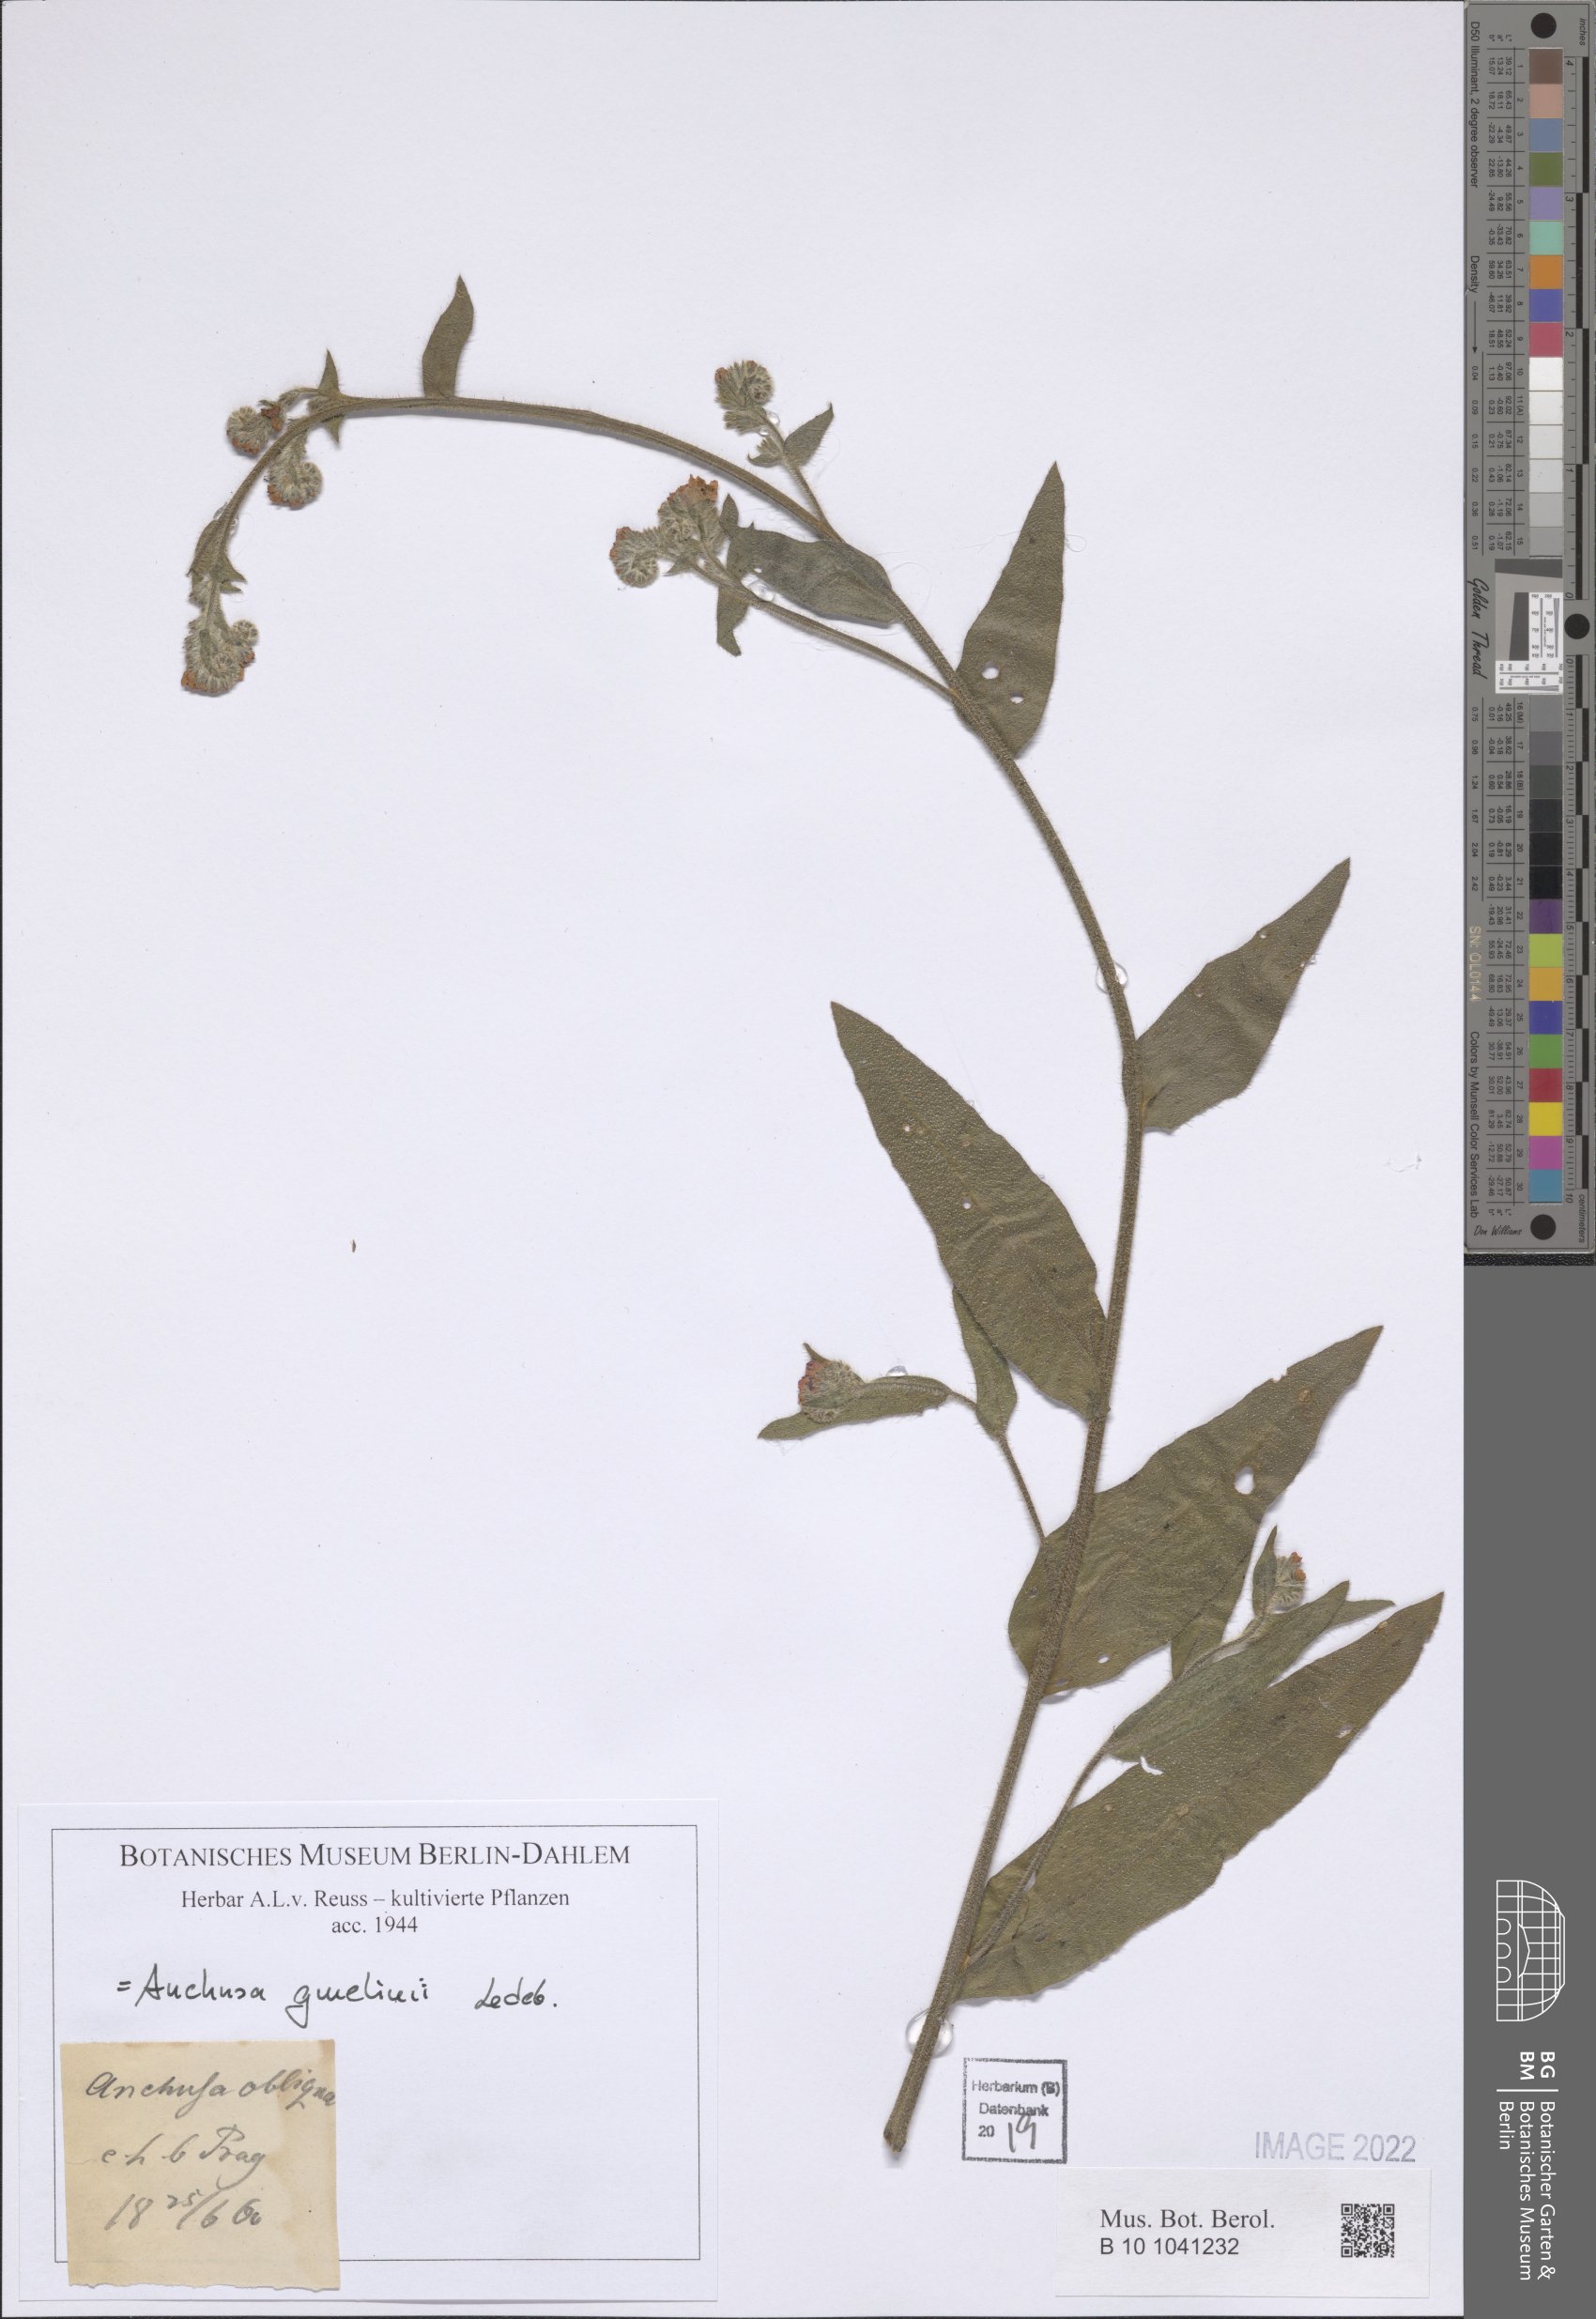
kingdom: Plantae
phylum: Tracheophyta
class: Magnoliopsida
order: Boraginales
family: Boraginaceae
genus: Anchusa
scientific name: Anchusa gmelinii
